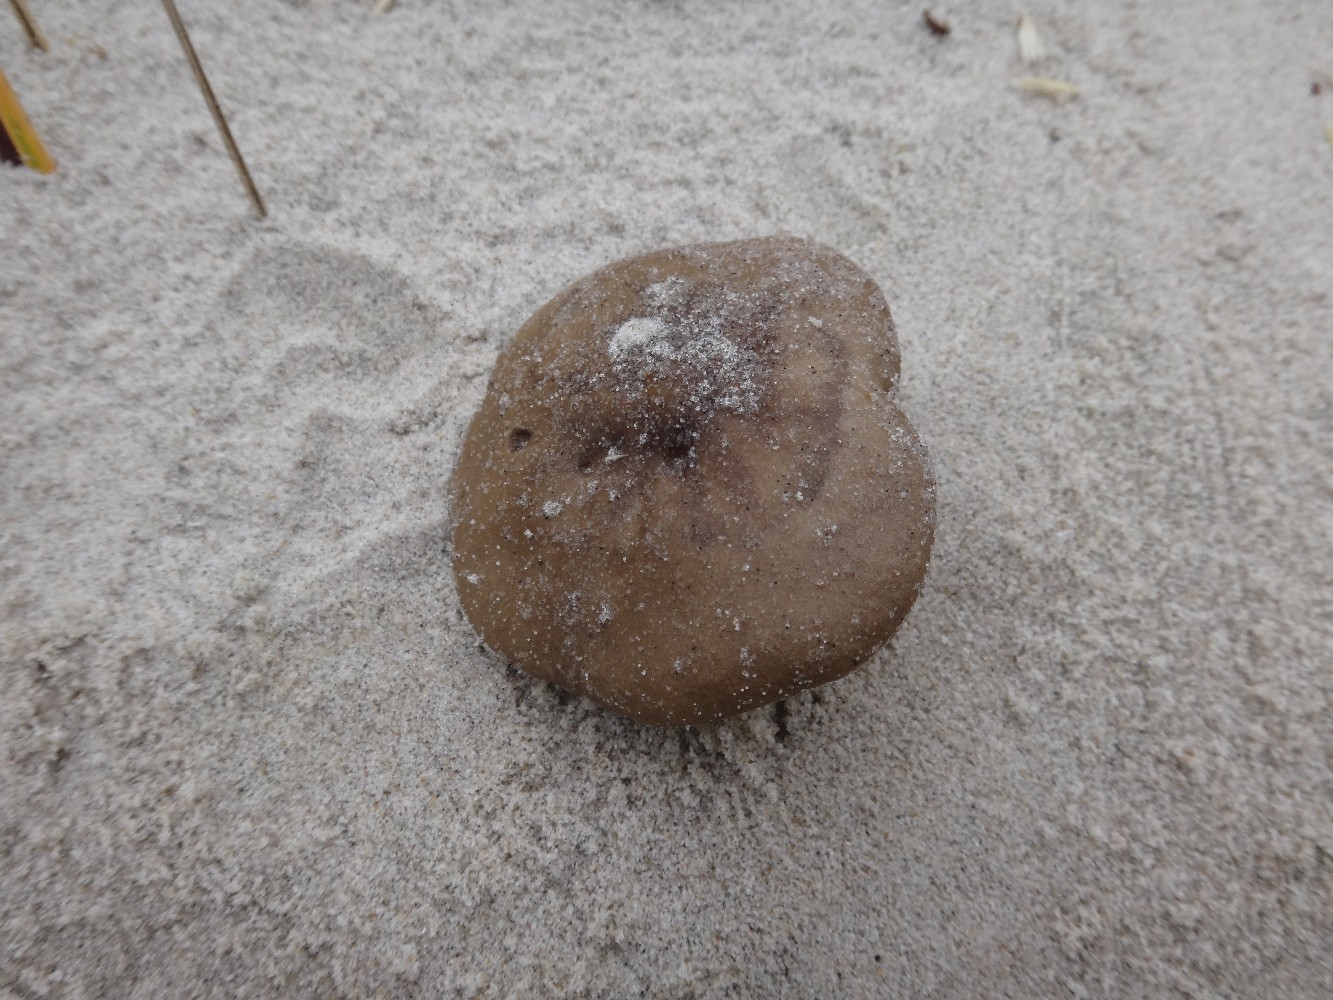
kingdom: Fungi
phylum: Basidiomycota
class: Agaricomycetes
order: Agaricales
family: Tricholomataceae
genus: Melanoleuca
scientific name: Melanoleuca ammophila
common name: gråbladet munkehat
